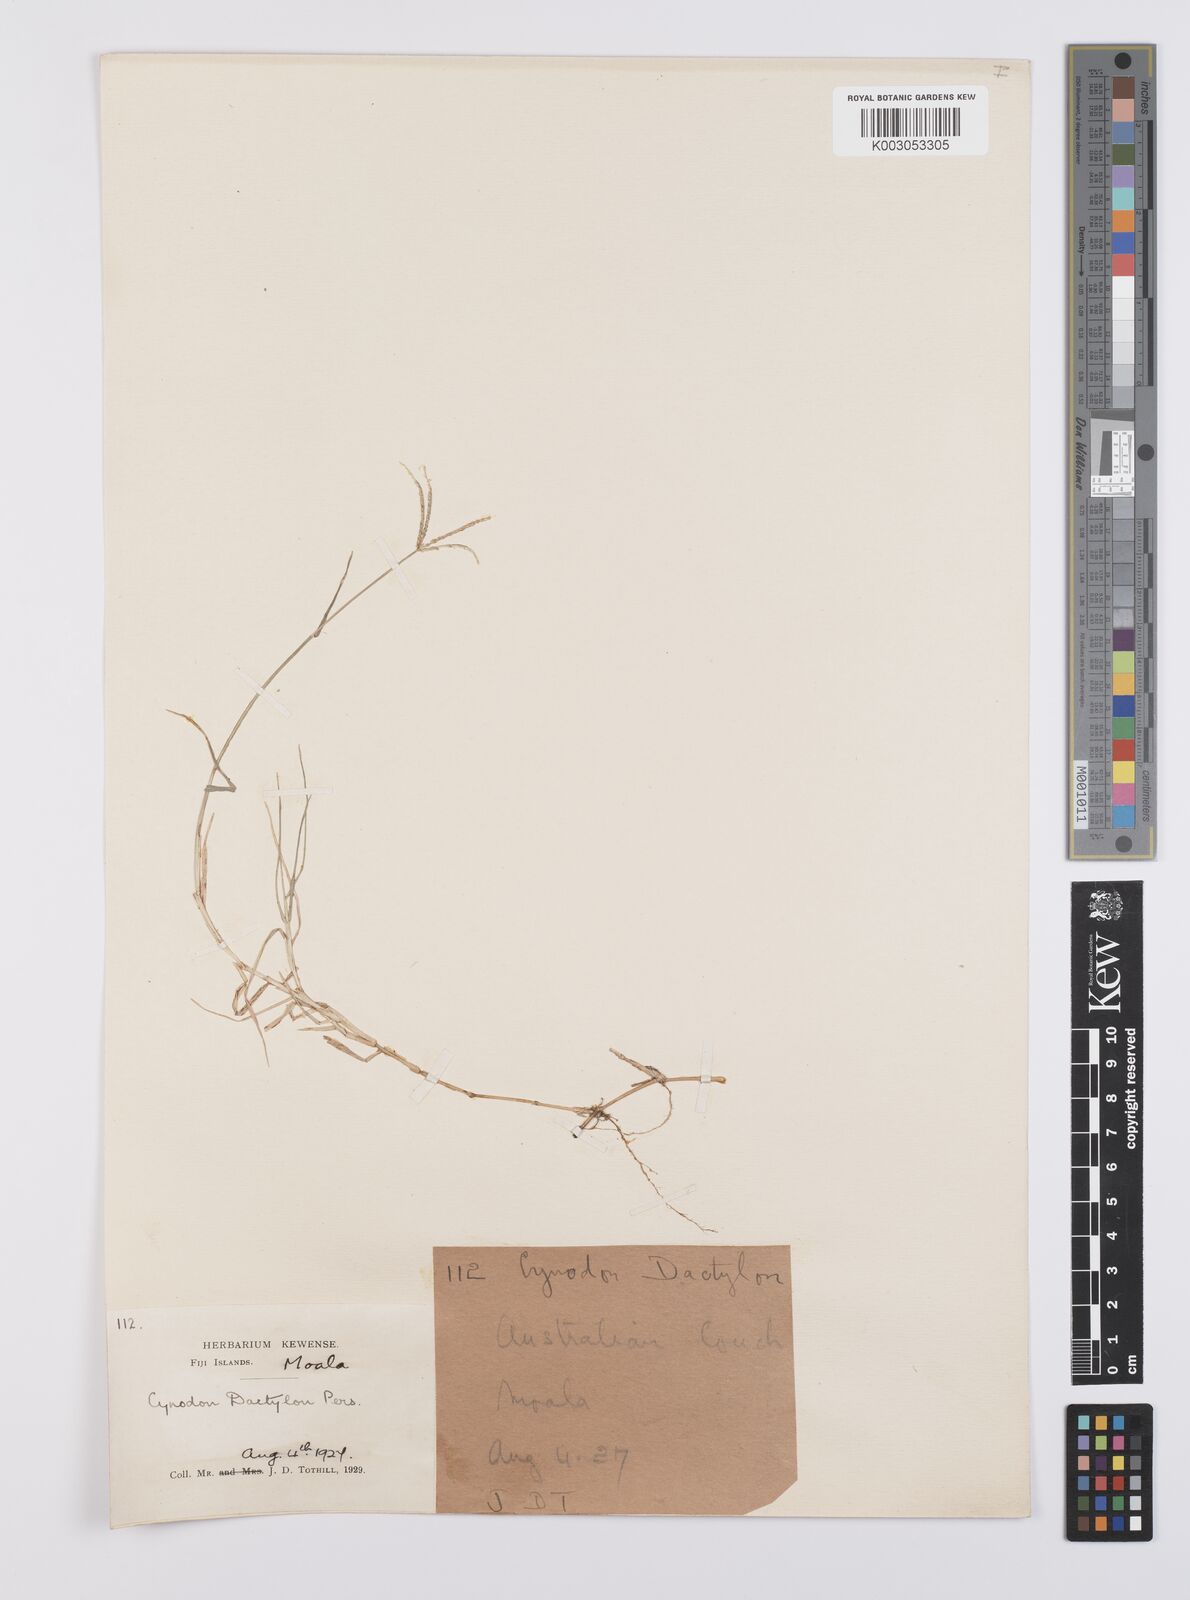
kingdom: Plantae
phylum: Tracheophyta
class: Liliopsida
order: Poales
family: Poaceae
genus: Cynodon
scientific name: Cynodon dactylon
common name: Bermuda grass
